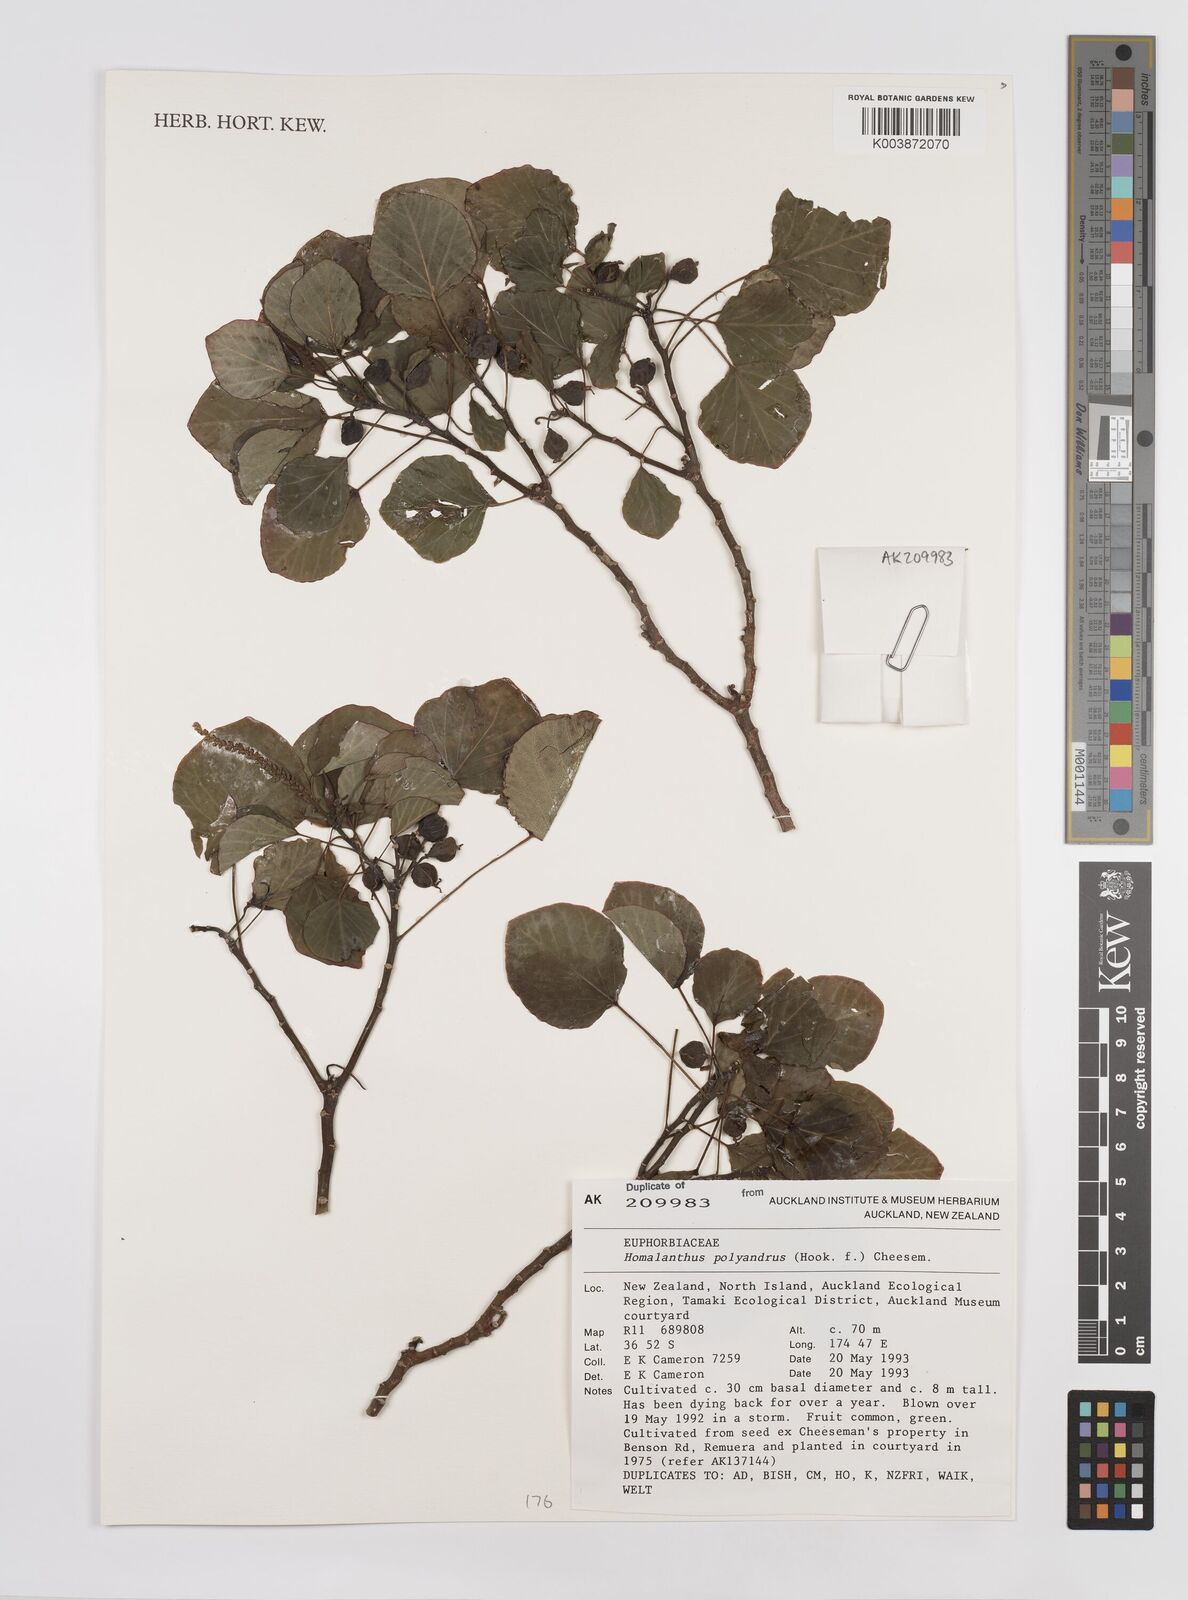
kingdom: Plantae
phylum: Tracheophyta
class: Magnoliopsida
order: Malpighiales
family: Euphorbiaceae
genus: Homalanthus
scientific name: Homalanthus polyandrus
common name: Kermadec poplar
